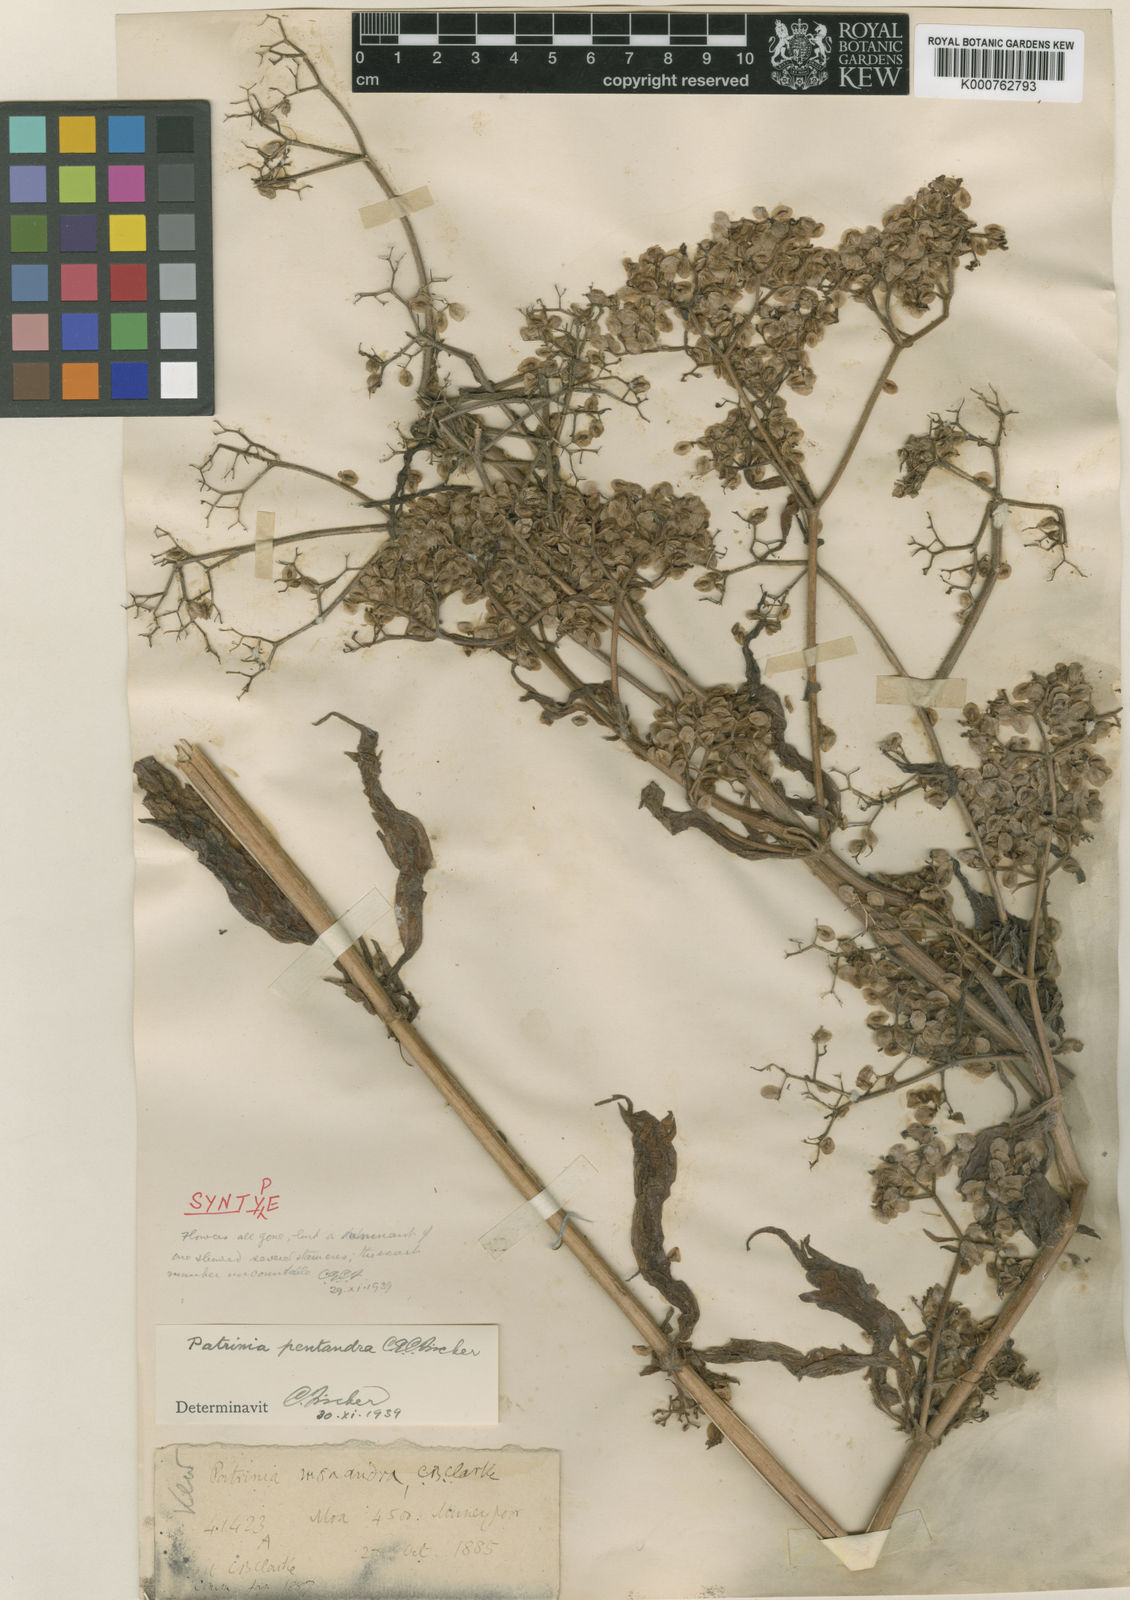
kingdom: Plantae
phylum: Tracheophyta
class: Magnoliopsida
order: Dipsacales
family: Caprifoliaceae
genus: Patrinia
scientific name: Patrinia monandra
